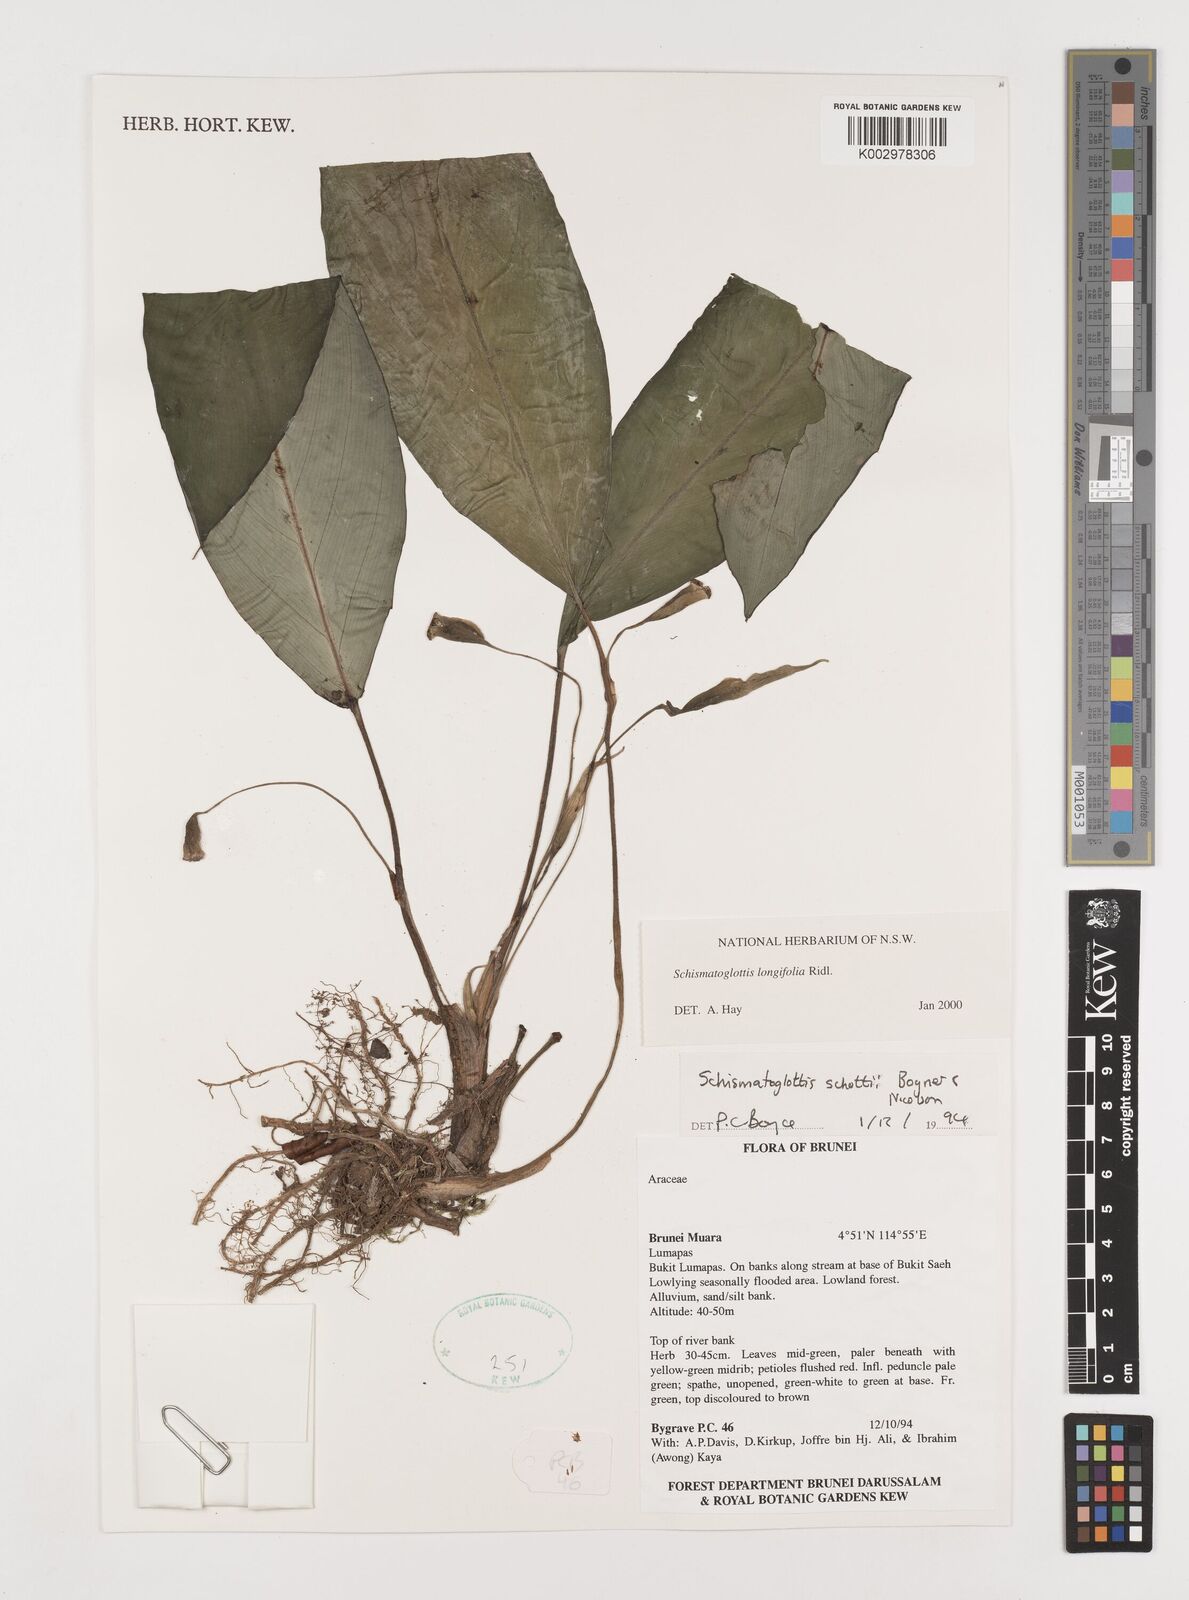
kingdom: Plantae
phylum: Tracheophyta
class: Liliopsida
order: Alismatales
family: Araceae
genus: Vesta
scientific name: Vesta longifolia
